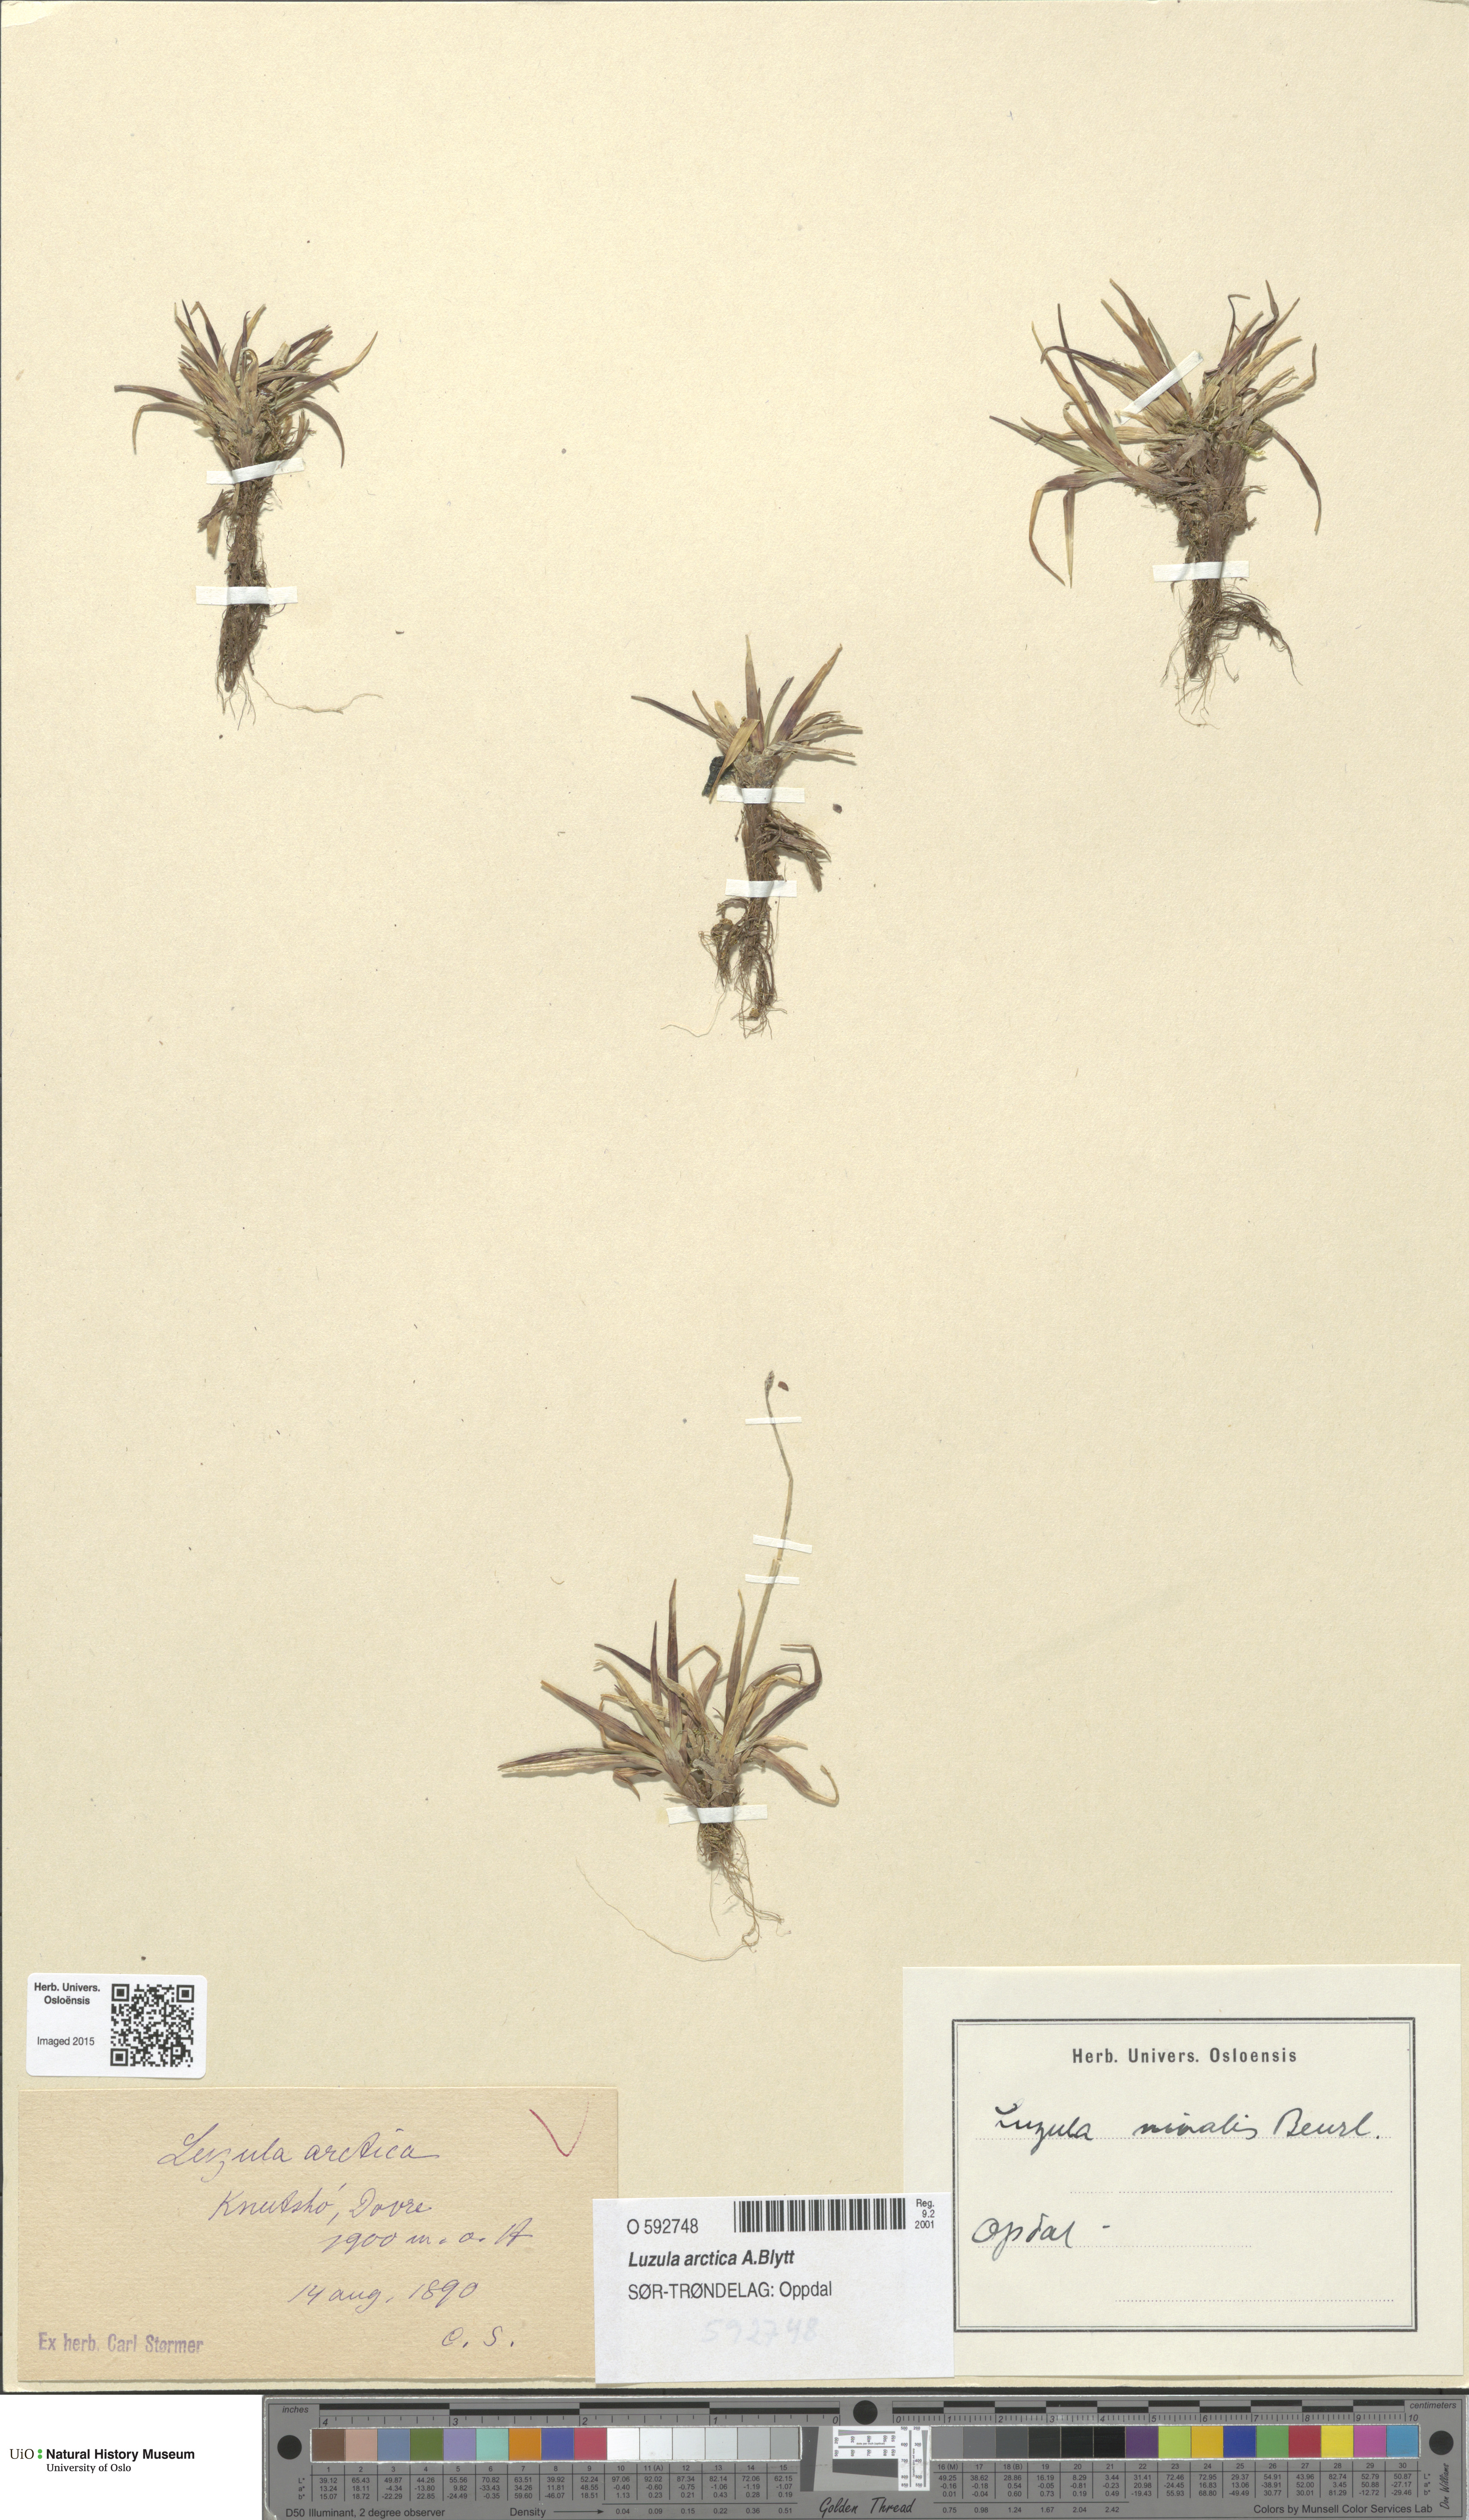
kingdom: Plantae
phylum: Tracheophyta
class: Liliopsida
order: Poales
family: Juncaceae
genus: Luzula
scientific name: Luzula nivalis
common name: Arctic woodrush
